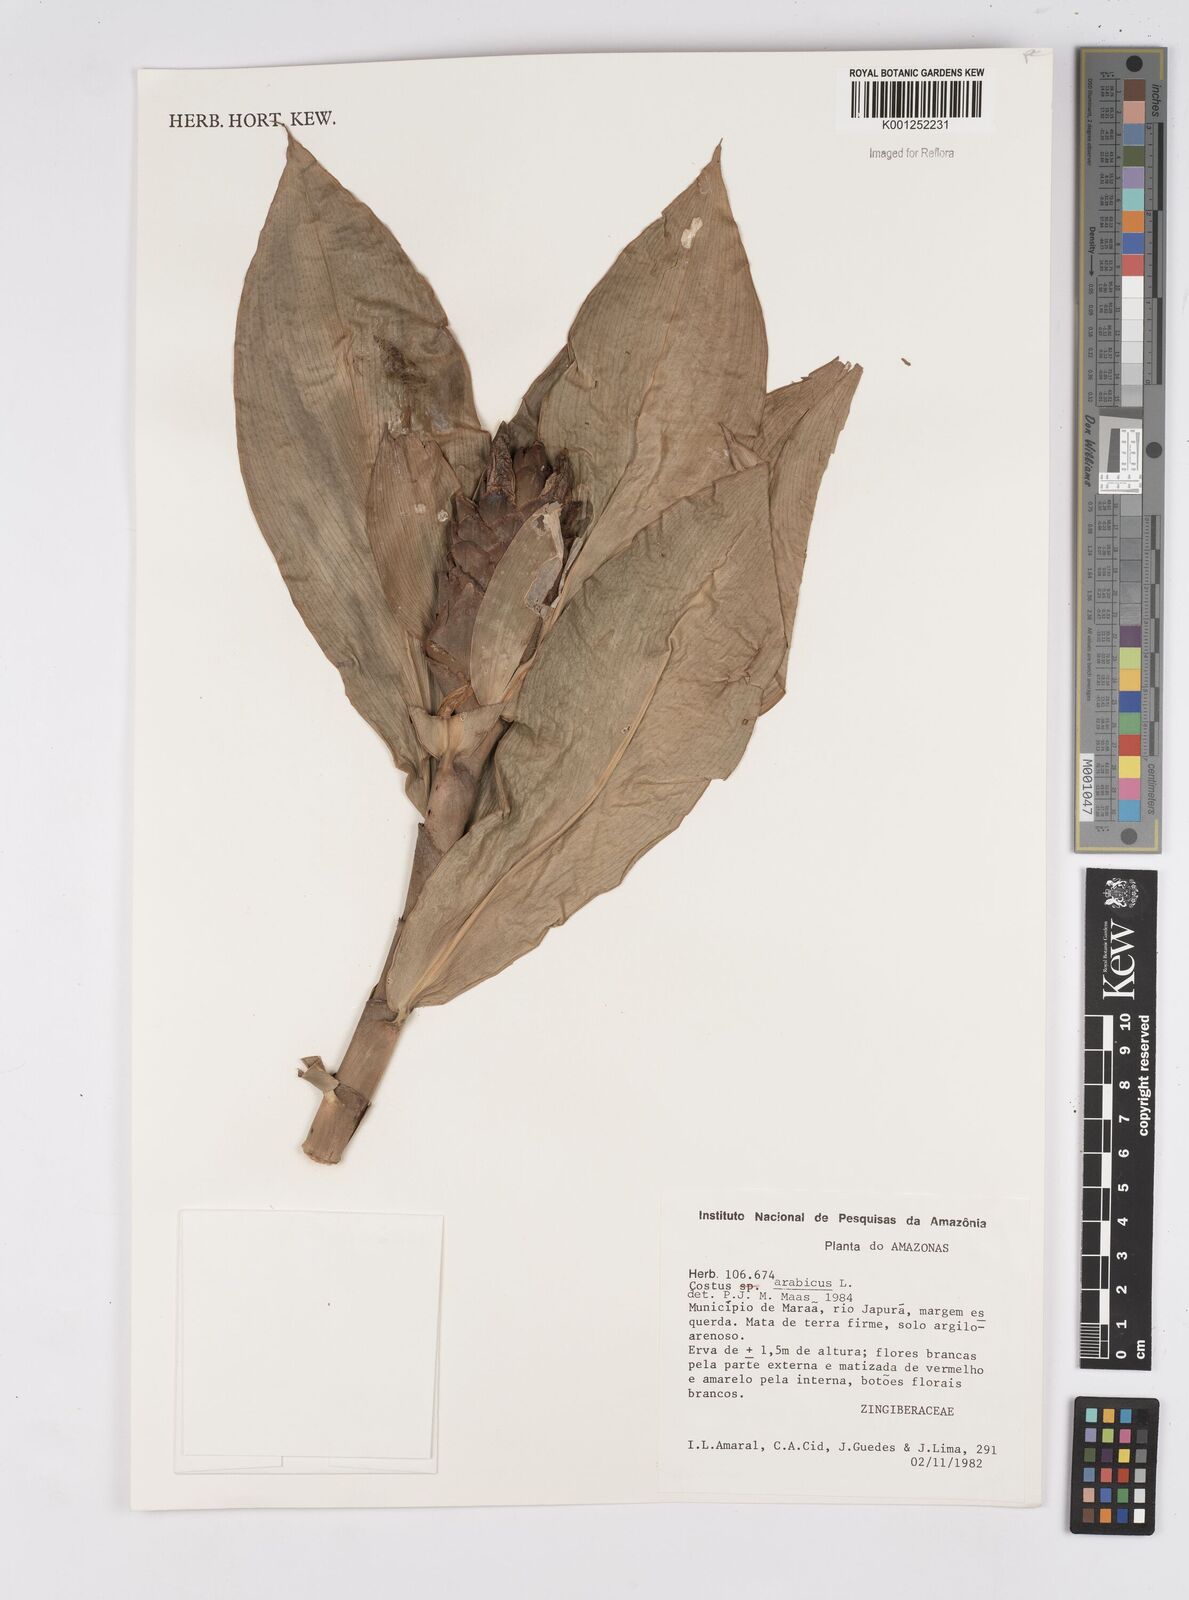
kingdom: Plantae
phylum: Tracheophyta
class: Liliopsida
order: Zingiberales
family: Costaceae
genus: Costus
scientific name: Costus arabicus
